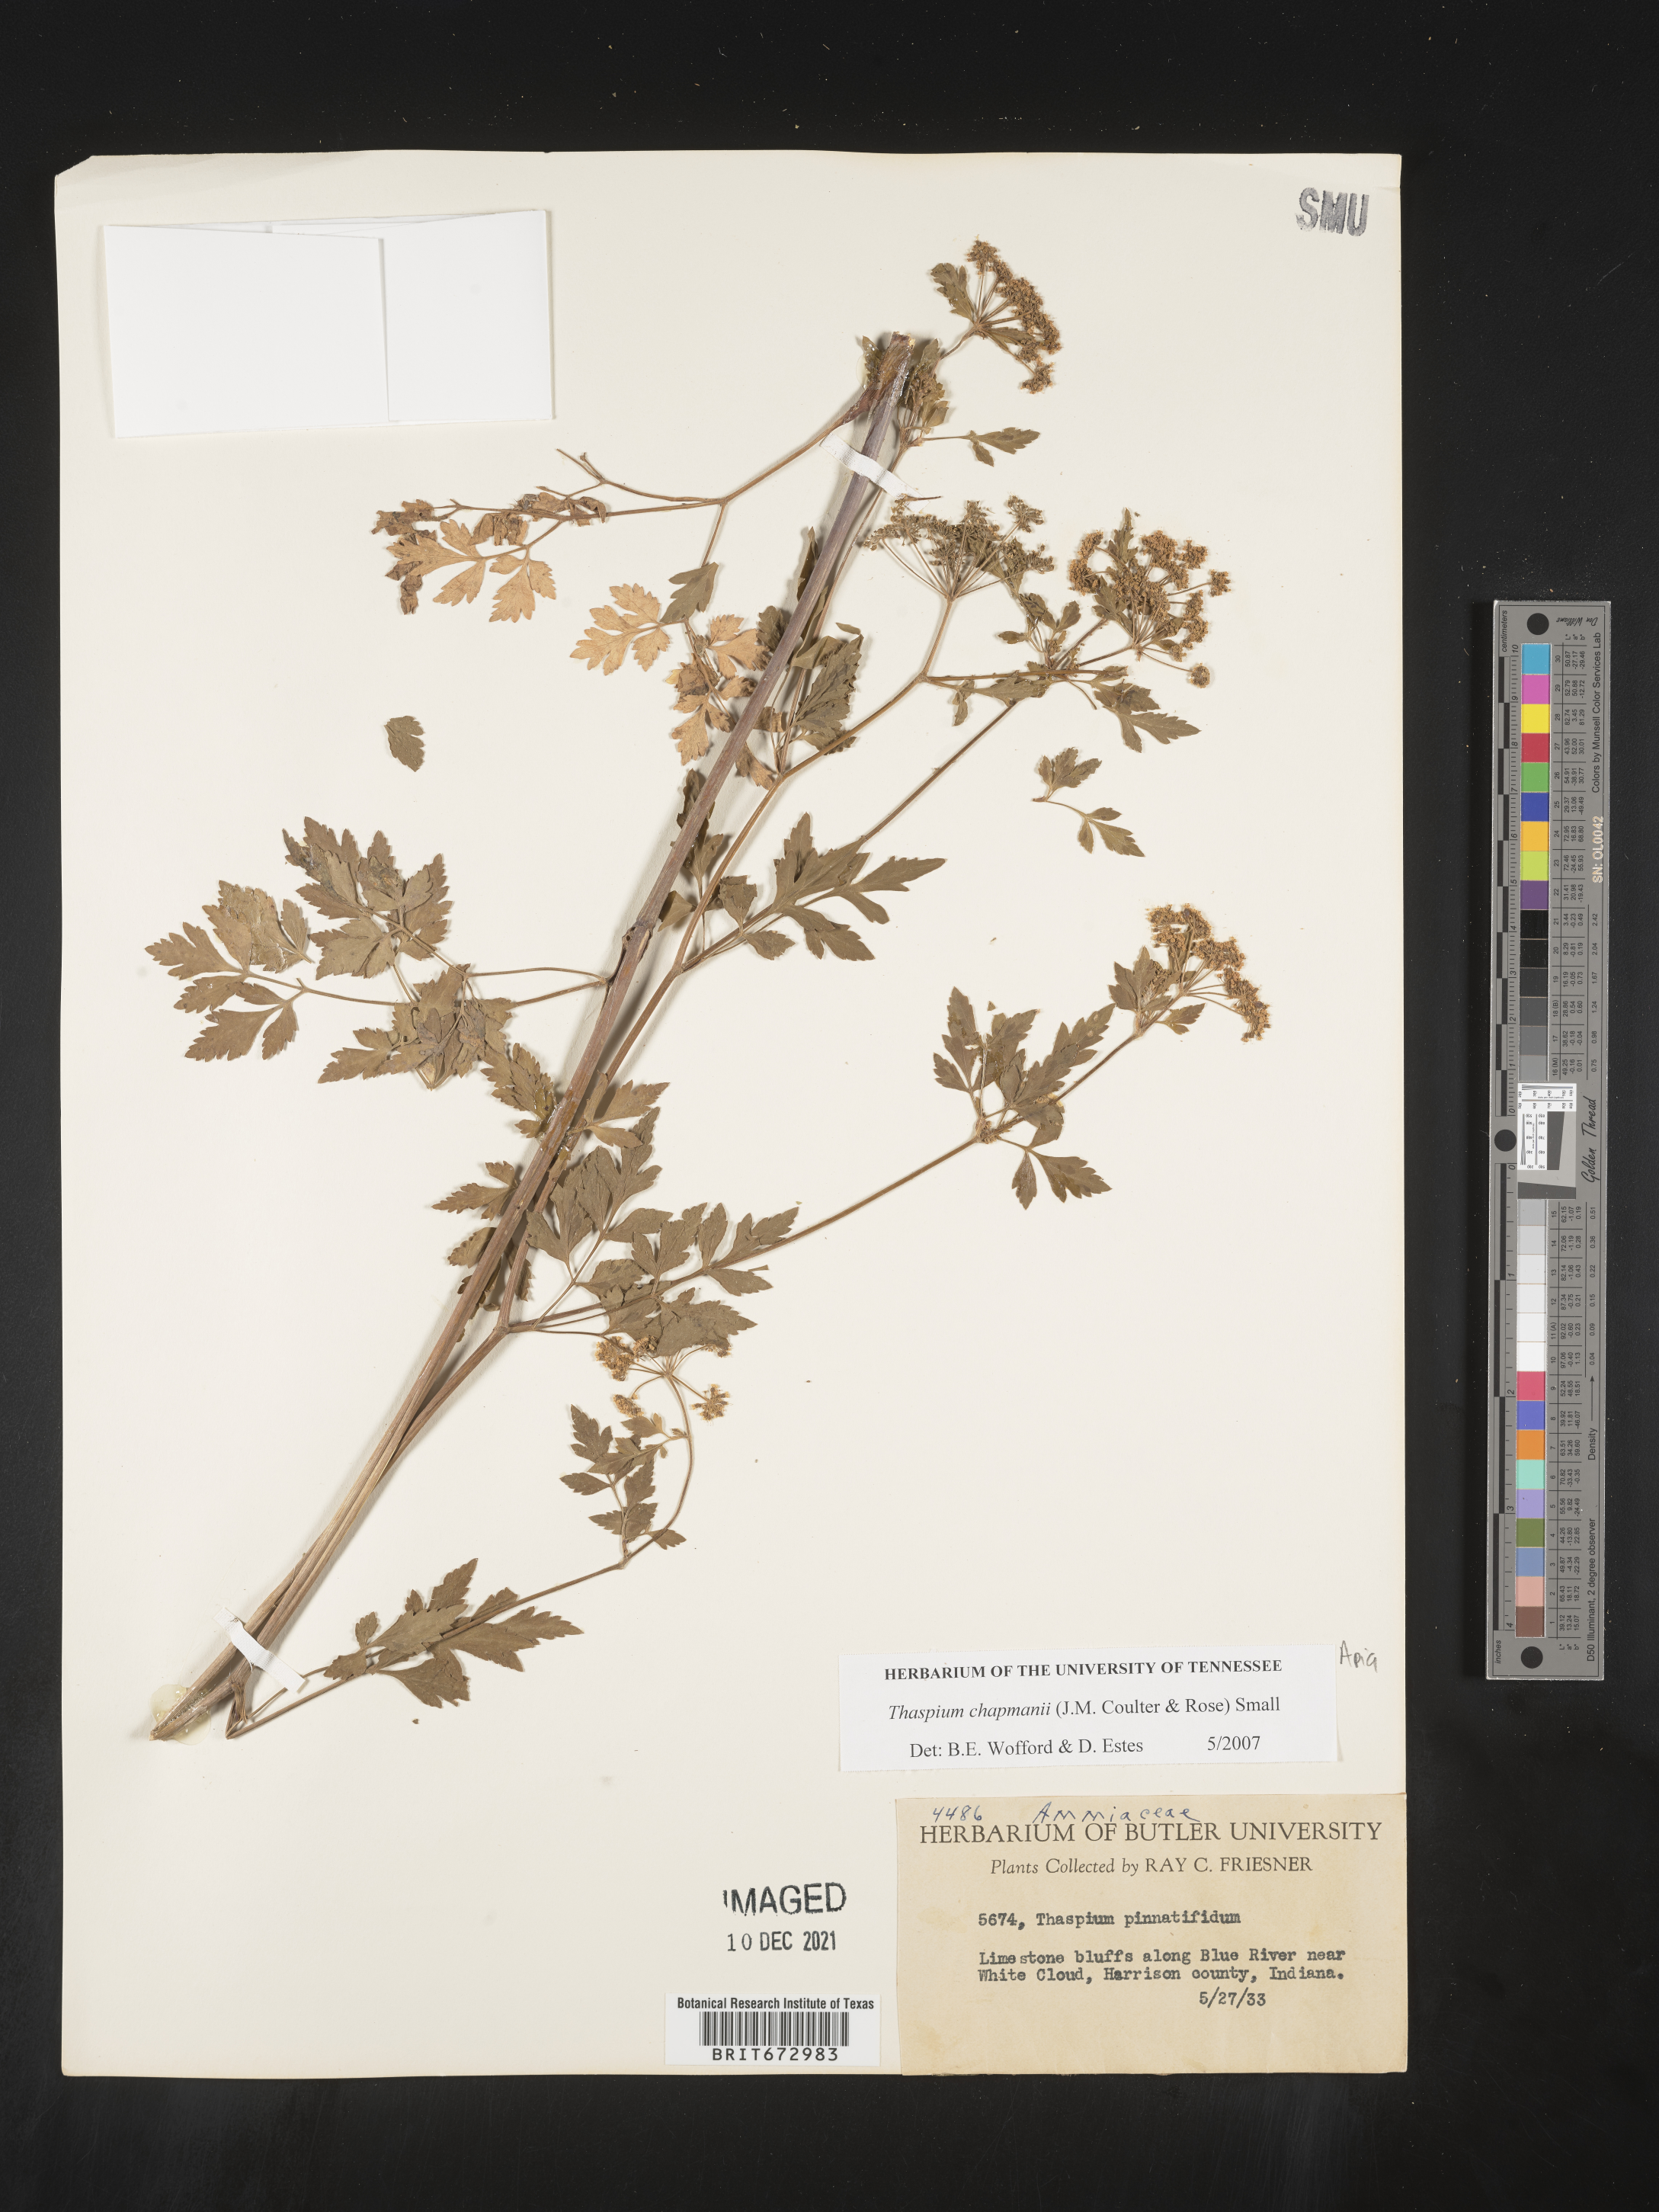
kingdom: Plantae
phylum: Tracheophyta
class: Magnoliopsida
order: Apiales
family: Apiaceae
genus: Thaspium
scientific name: Thaspium barbinode
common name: Bearded meadow-parsnip
